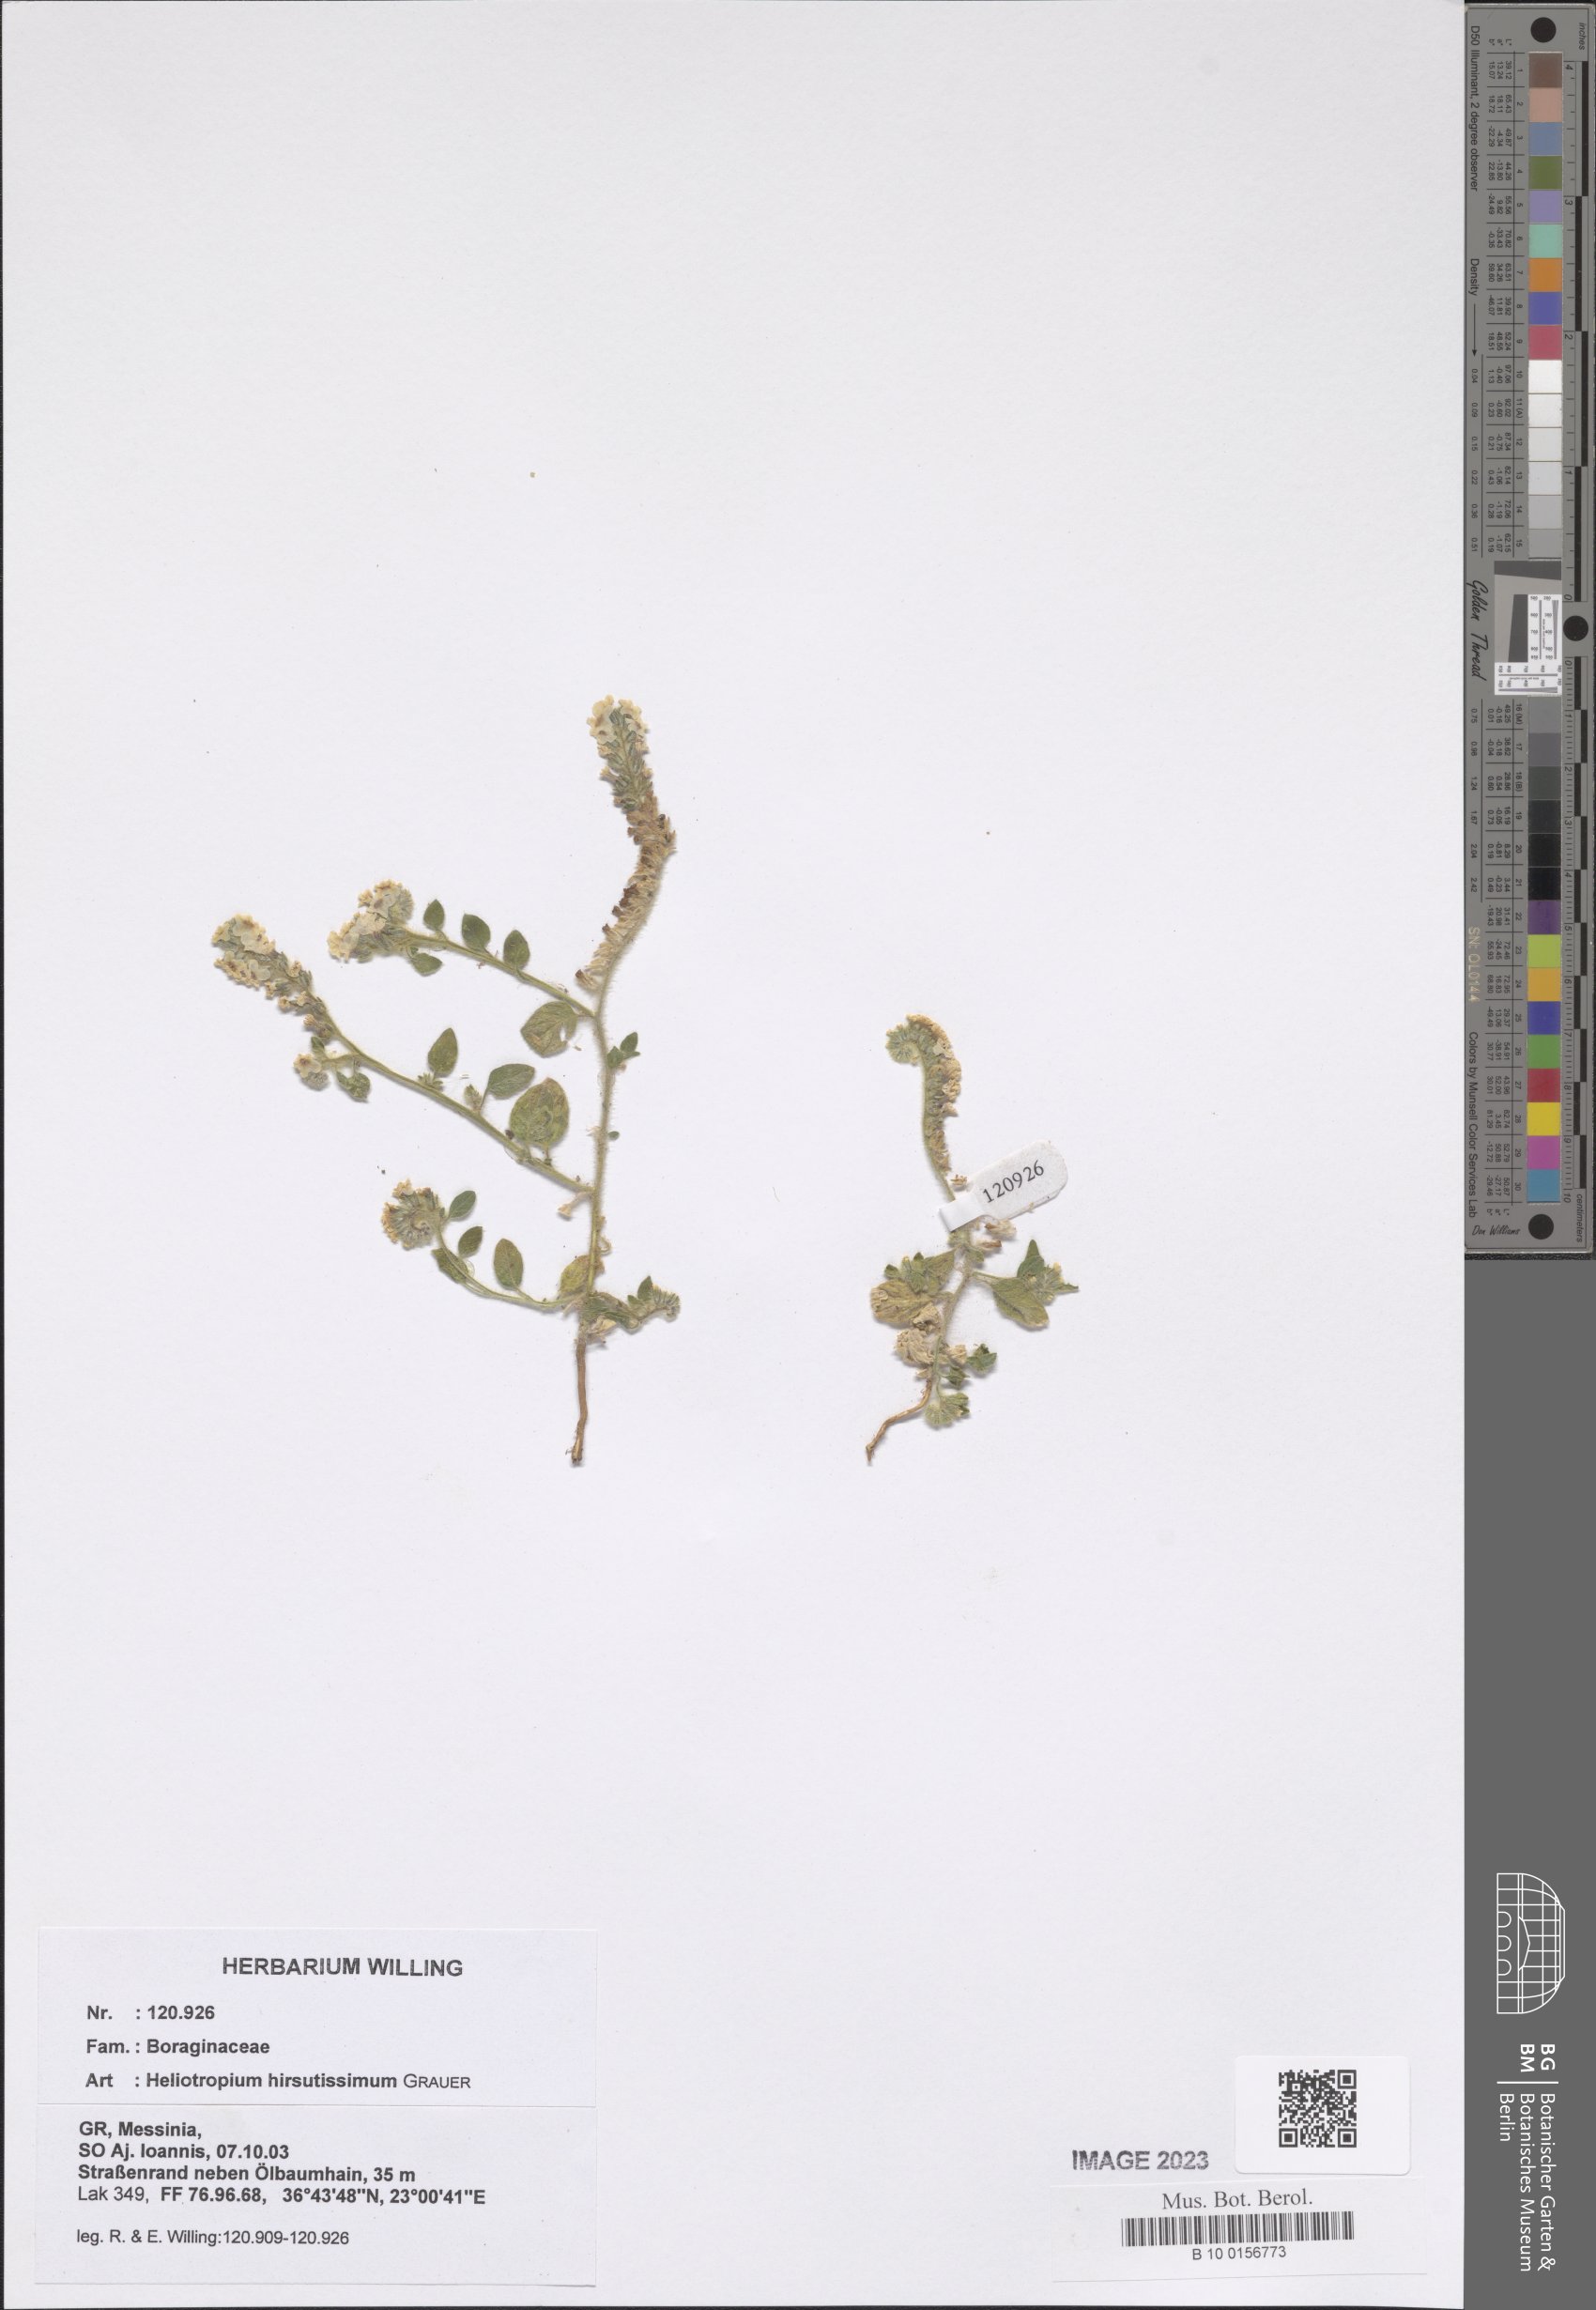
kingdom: Plantae
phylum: Tracheophyta
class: Magnoliopsida
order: Boraginales
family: Heliotropiaceae
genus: Heliotropium
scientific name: Heliotropium hirsutissimum
